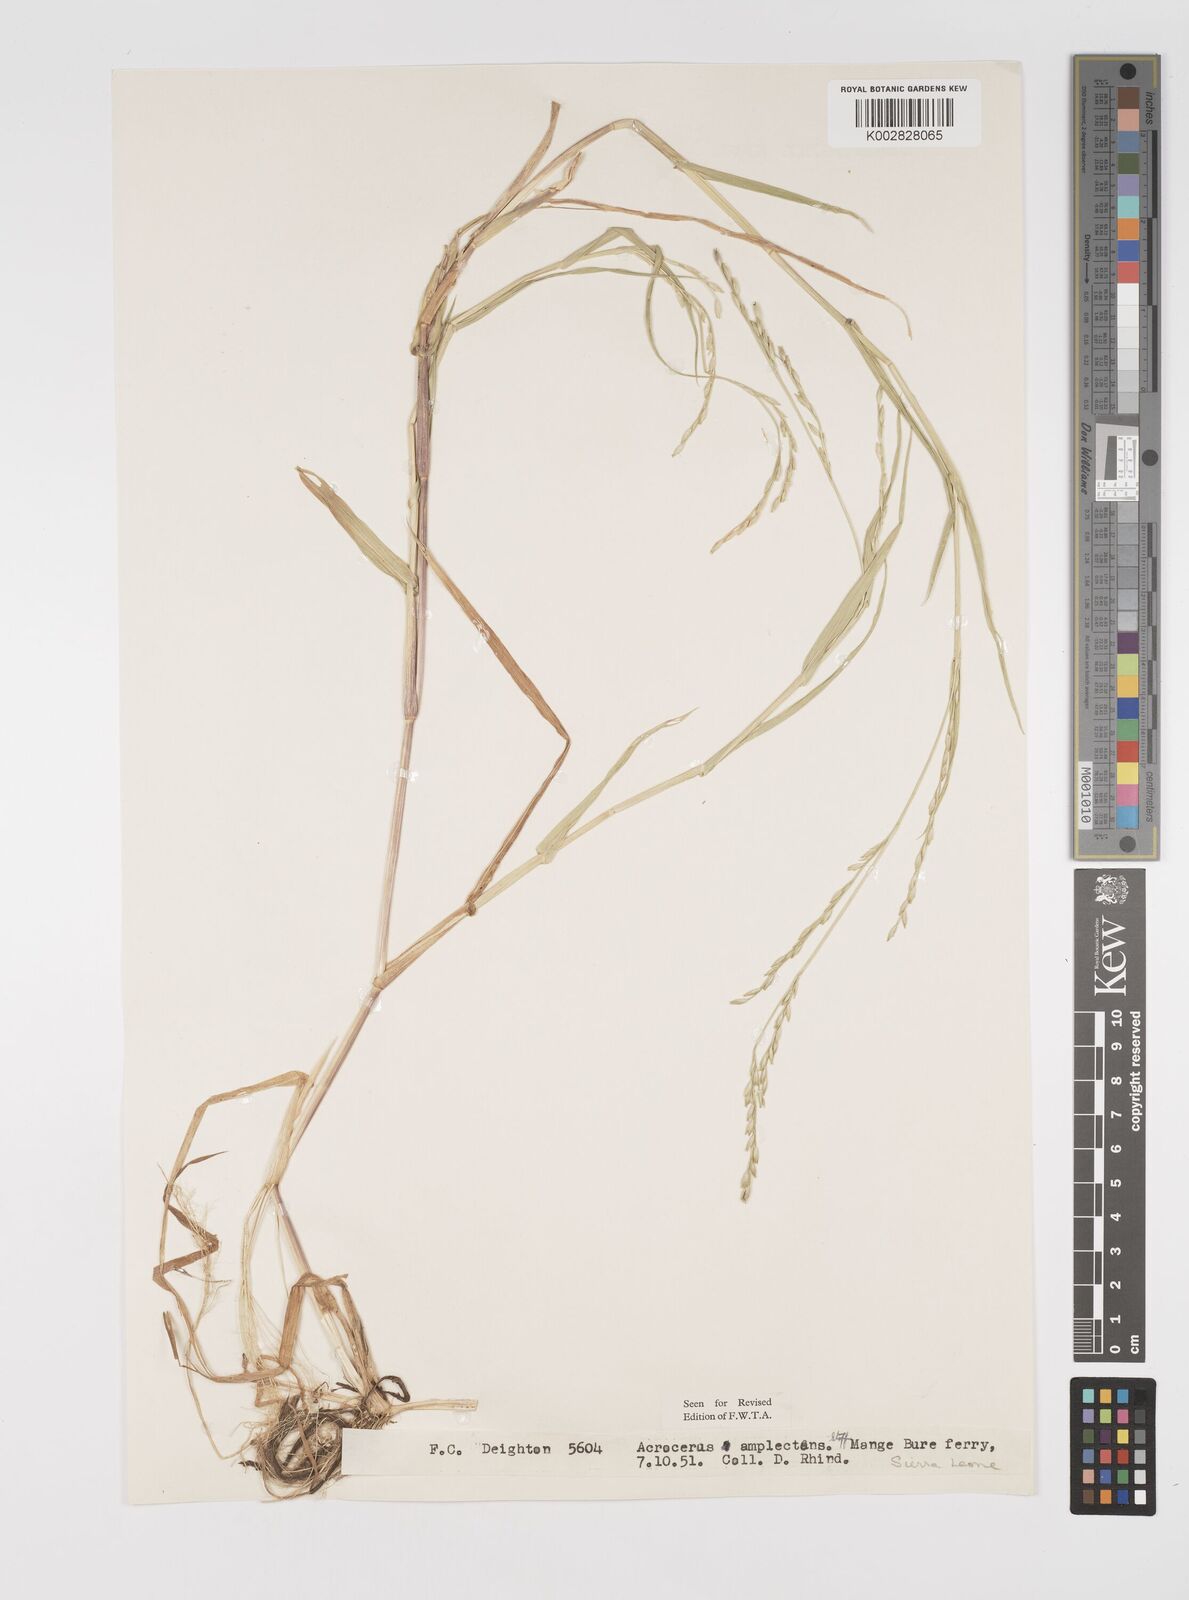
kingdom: Plantae
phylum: Tracheophyta
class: Liliopsida
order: Poales
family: Poaceae
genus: Acroceras
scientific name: Acroceras amplectens
